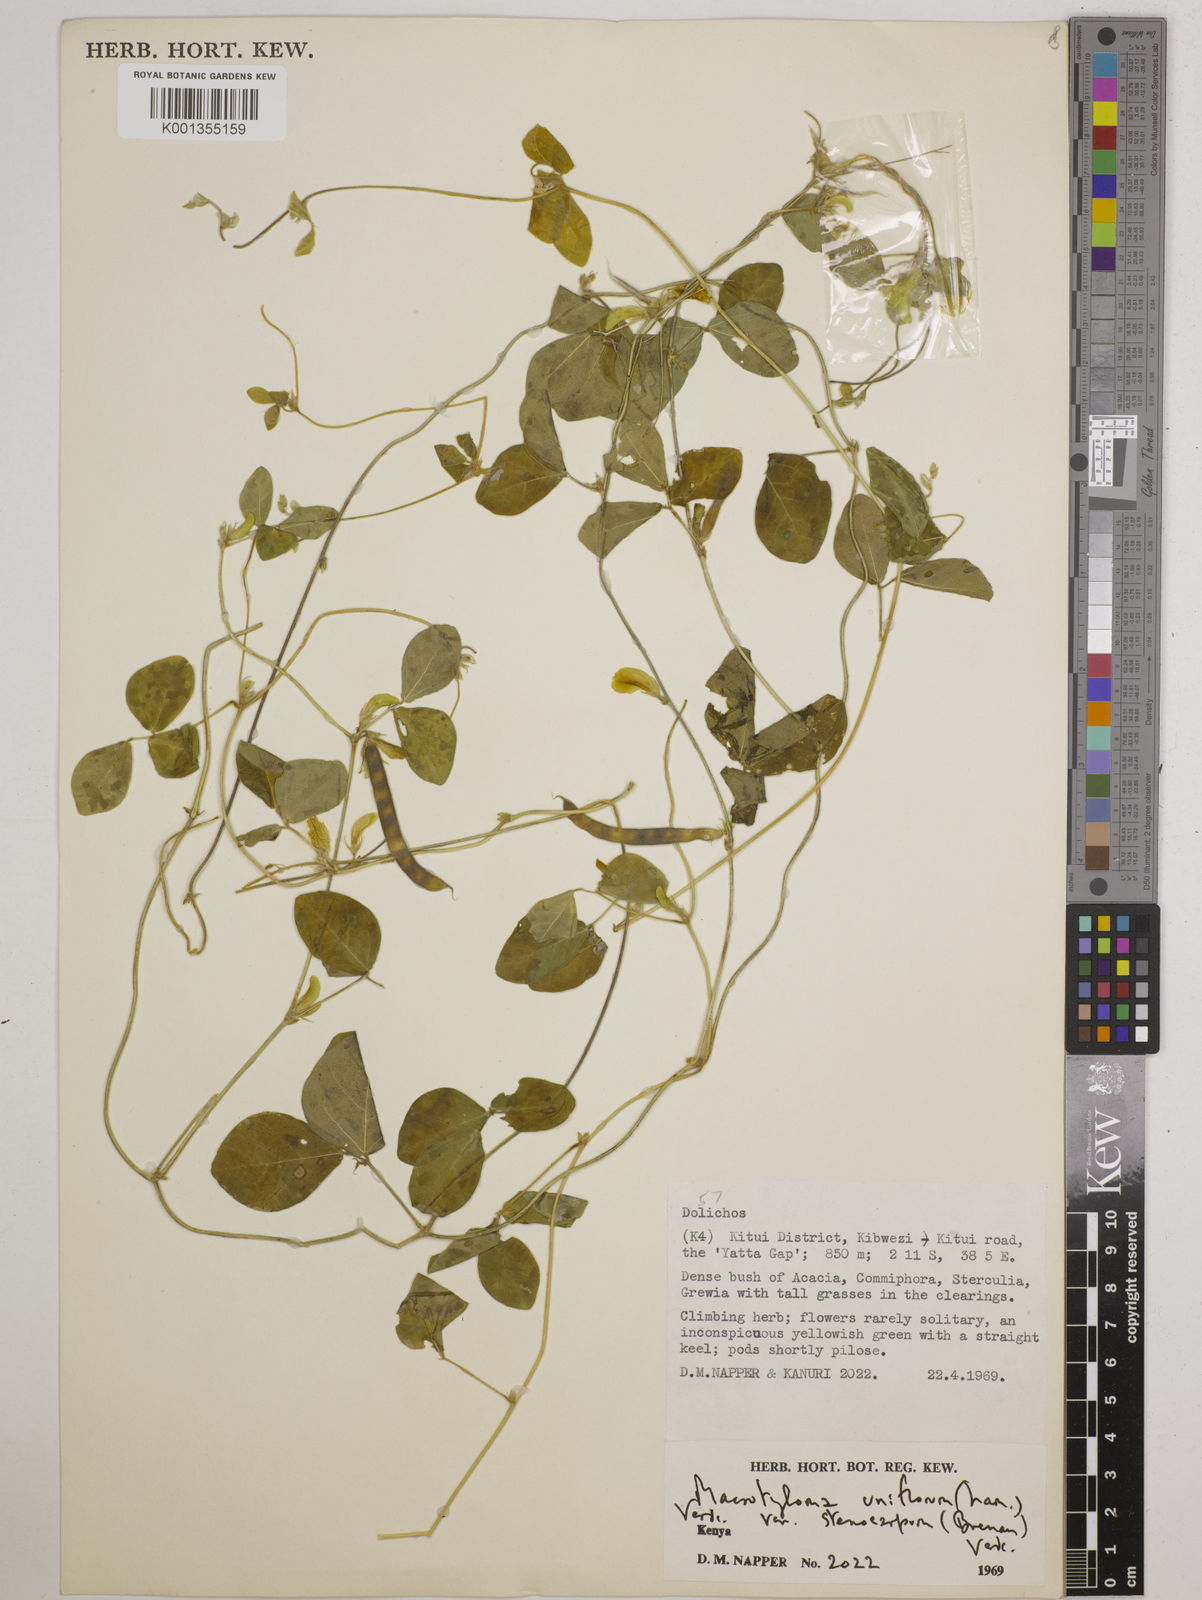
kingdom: Plantae
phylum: Tracheophyta
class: Magnoliopsida
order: Fabales
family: Fabaceae
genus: Macrotyloma
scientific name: Macrotyloma
